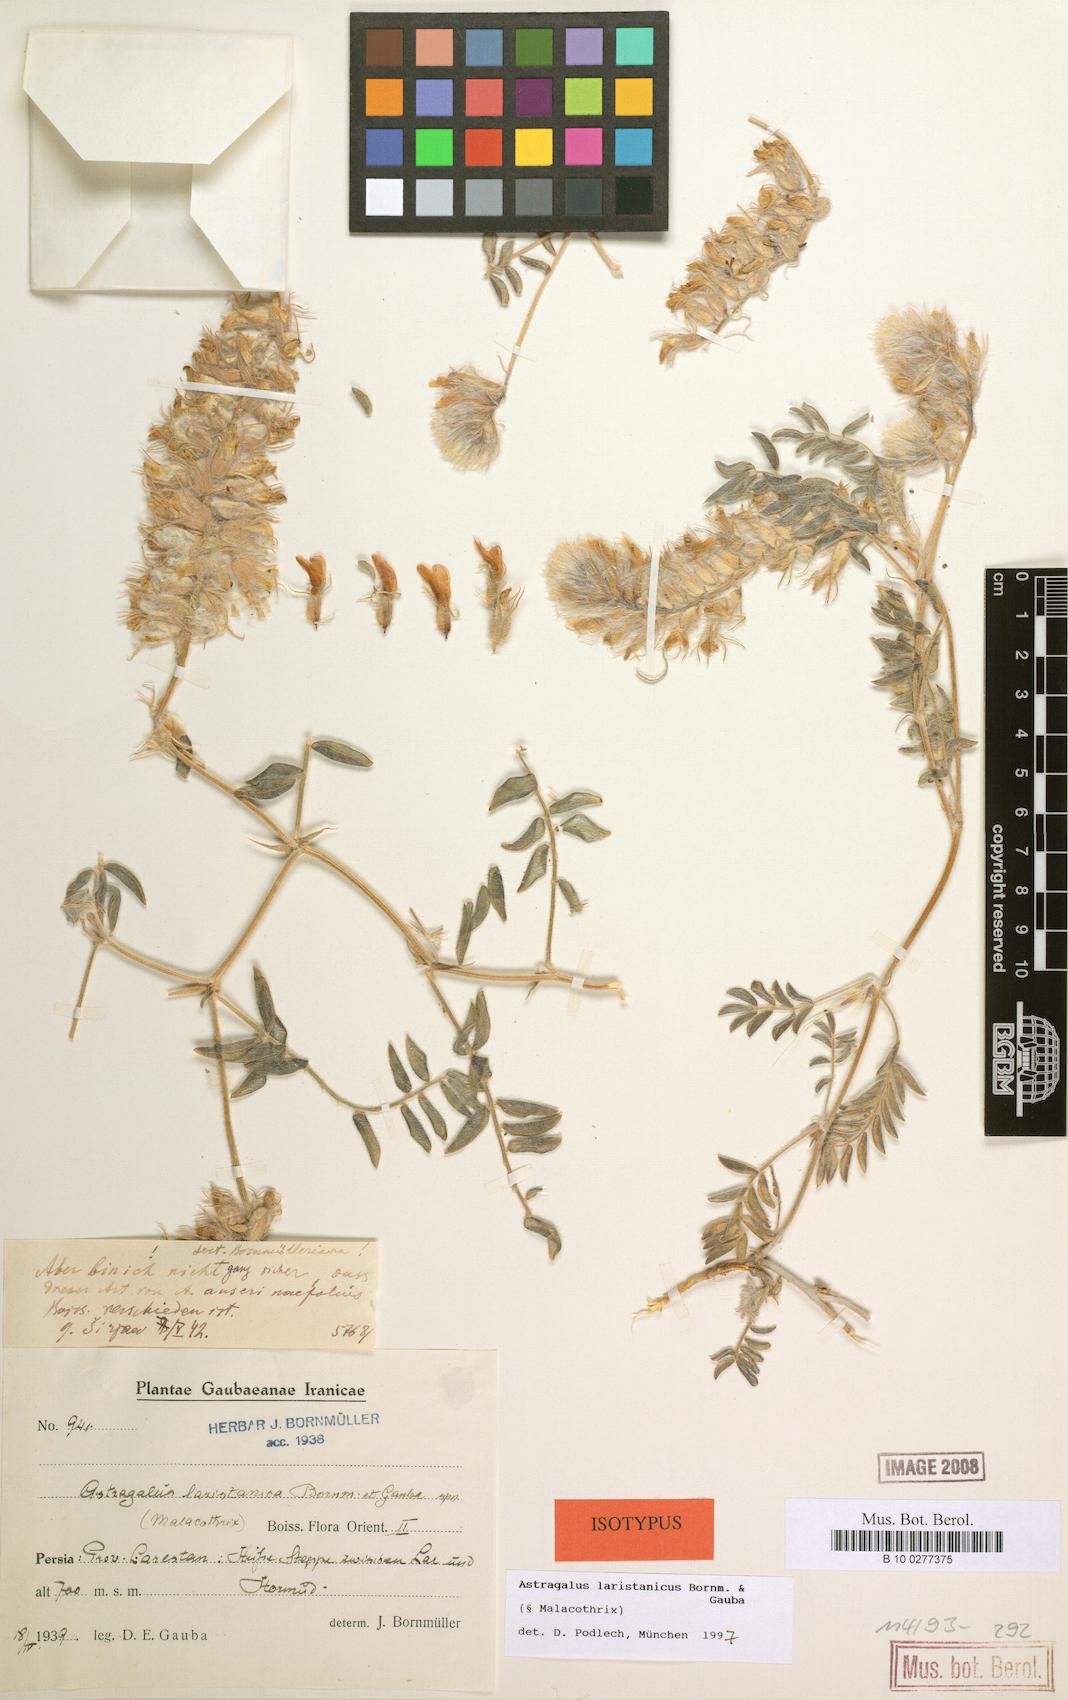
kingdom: Plantae
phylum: Tracheophyta
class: Magnoliopsida
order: Fabales
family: Fabaceae
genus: Astragalus
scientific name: Astragalus laristanicus
